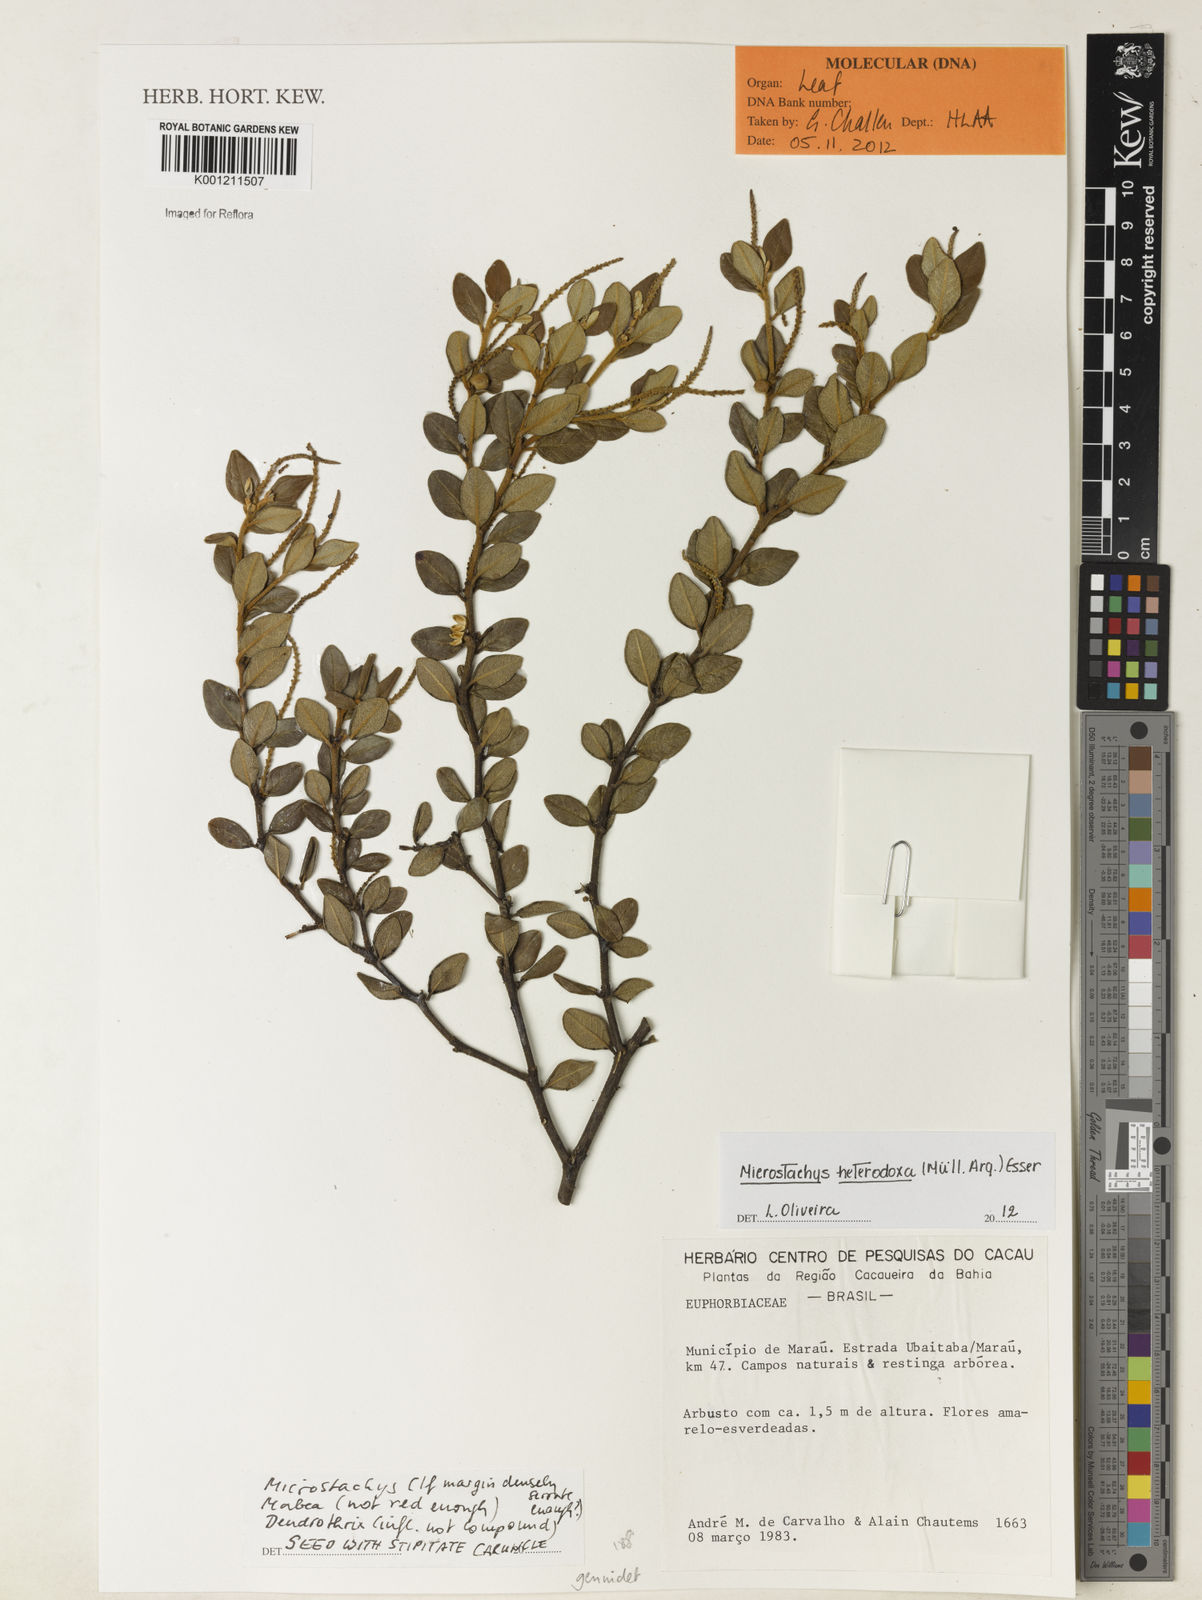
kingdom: Plantae
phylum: Tracheophyta
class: Magnoliopsida
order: Malpighiales
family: Euphorbiaceae
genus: Microstachys
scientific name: Microstachys
